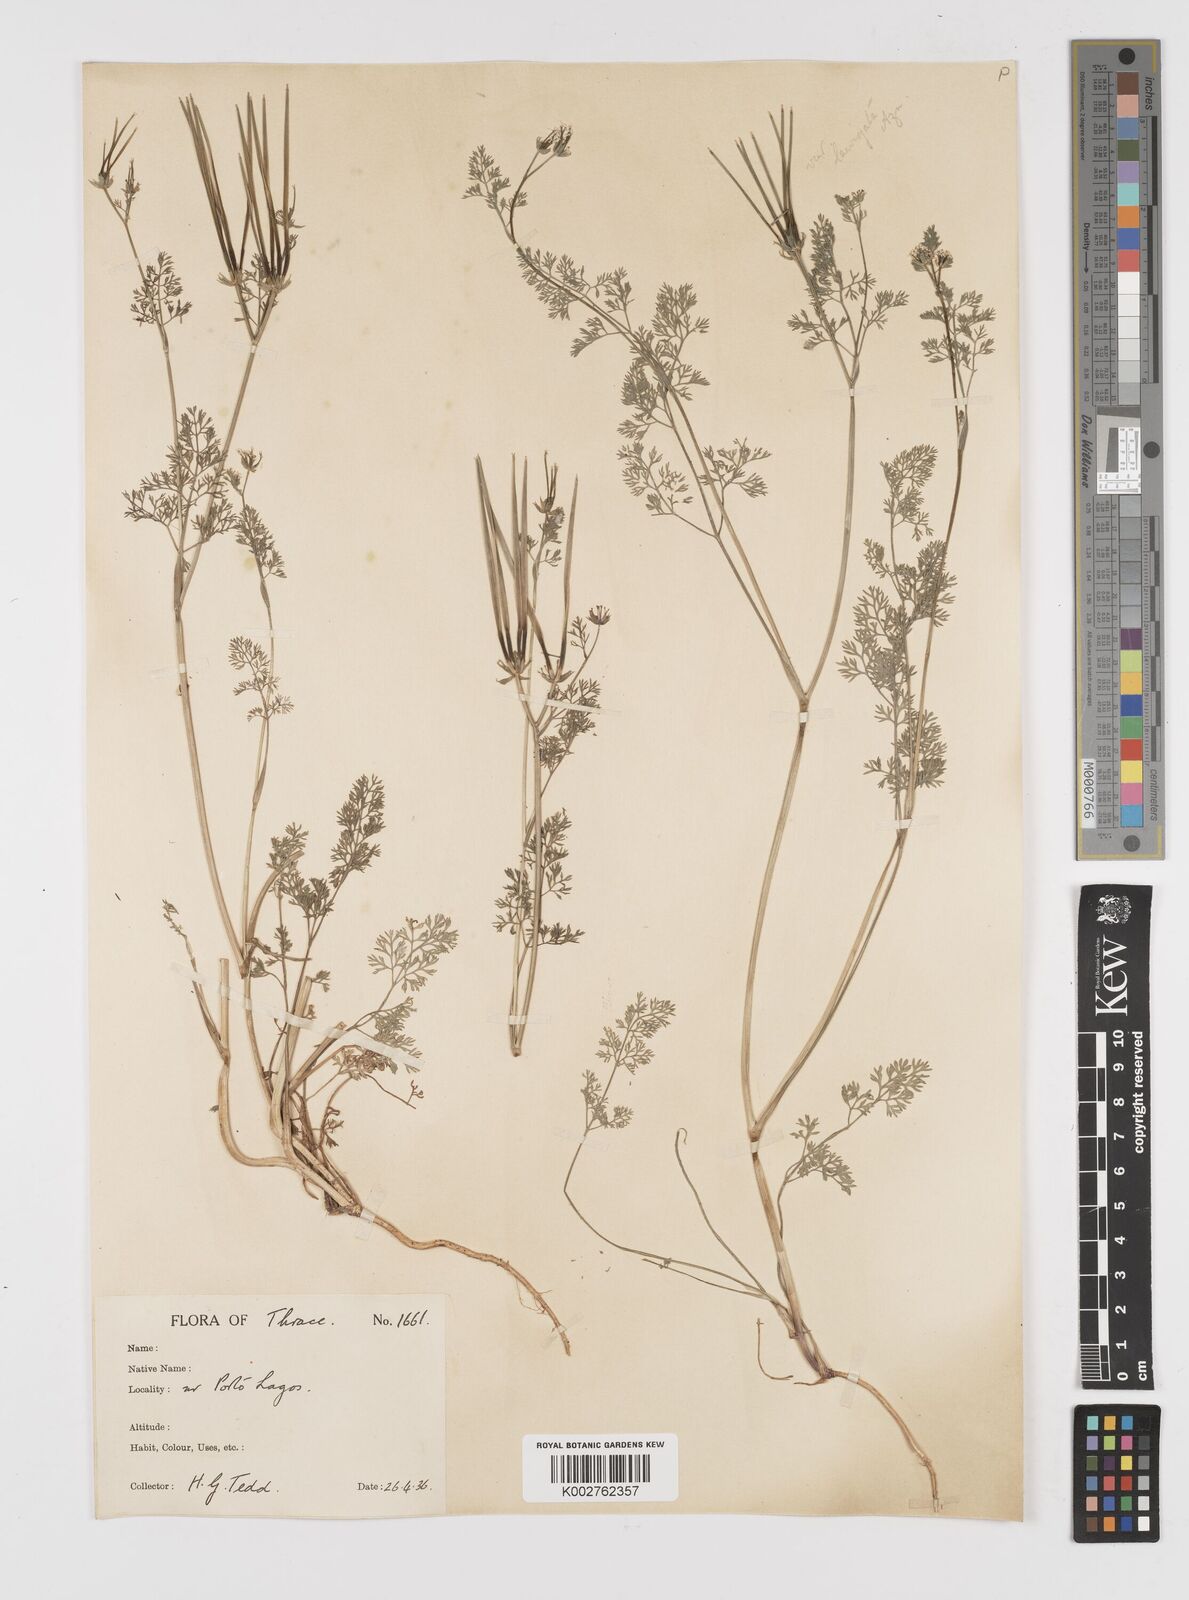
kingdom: Plantae
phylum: Tracheophyta
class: Magnoliopsida
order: Apiales
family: Apiaceae
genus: Scandix
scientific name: Scandix pecten-veneris
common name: Shepherd's-needle
